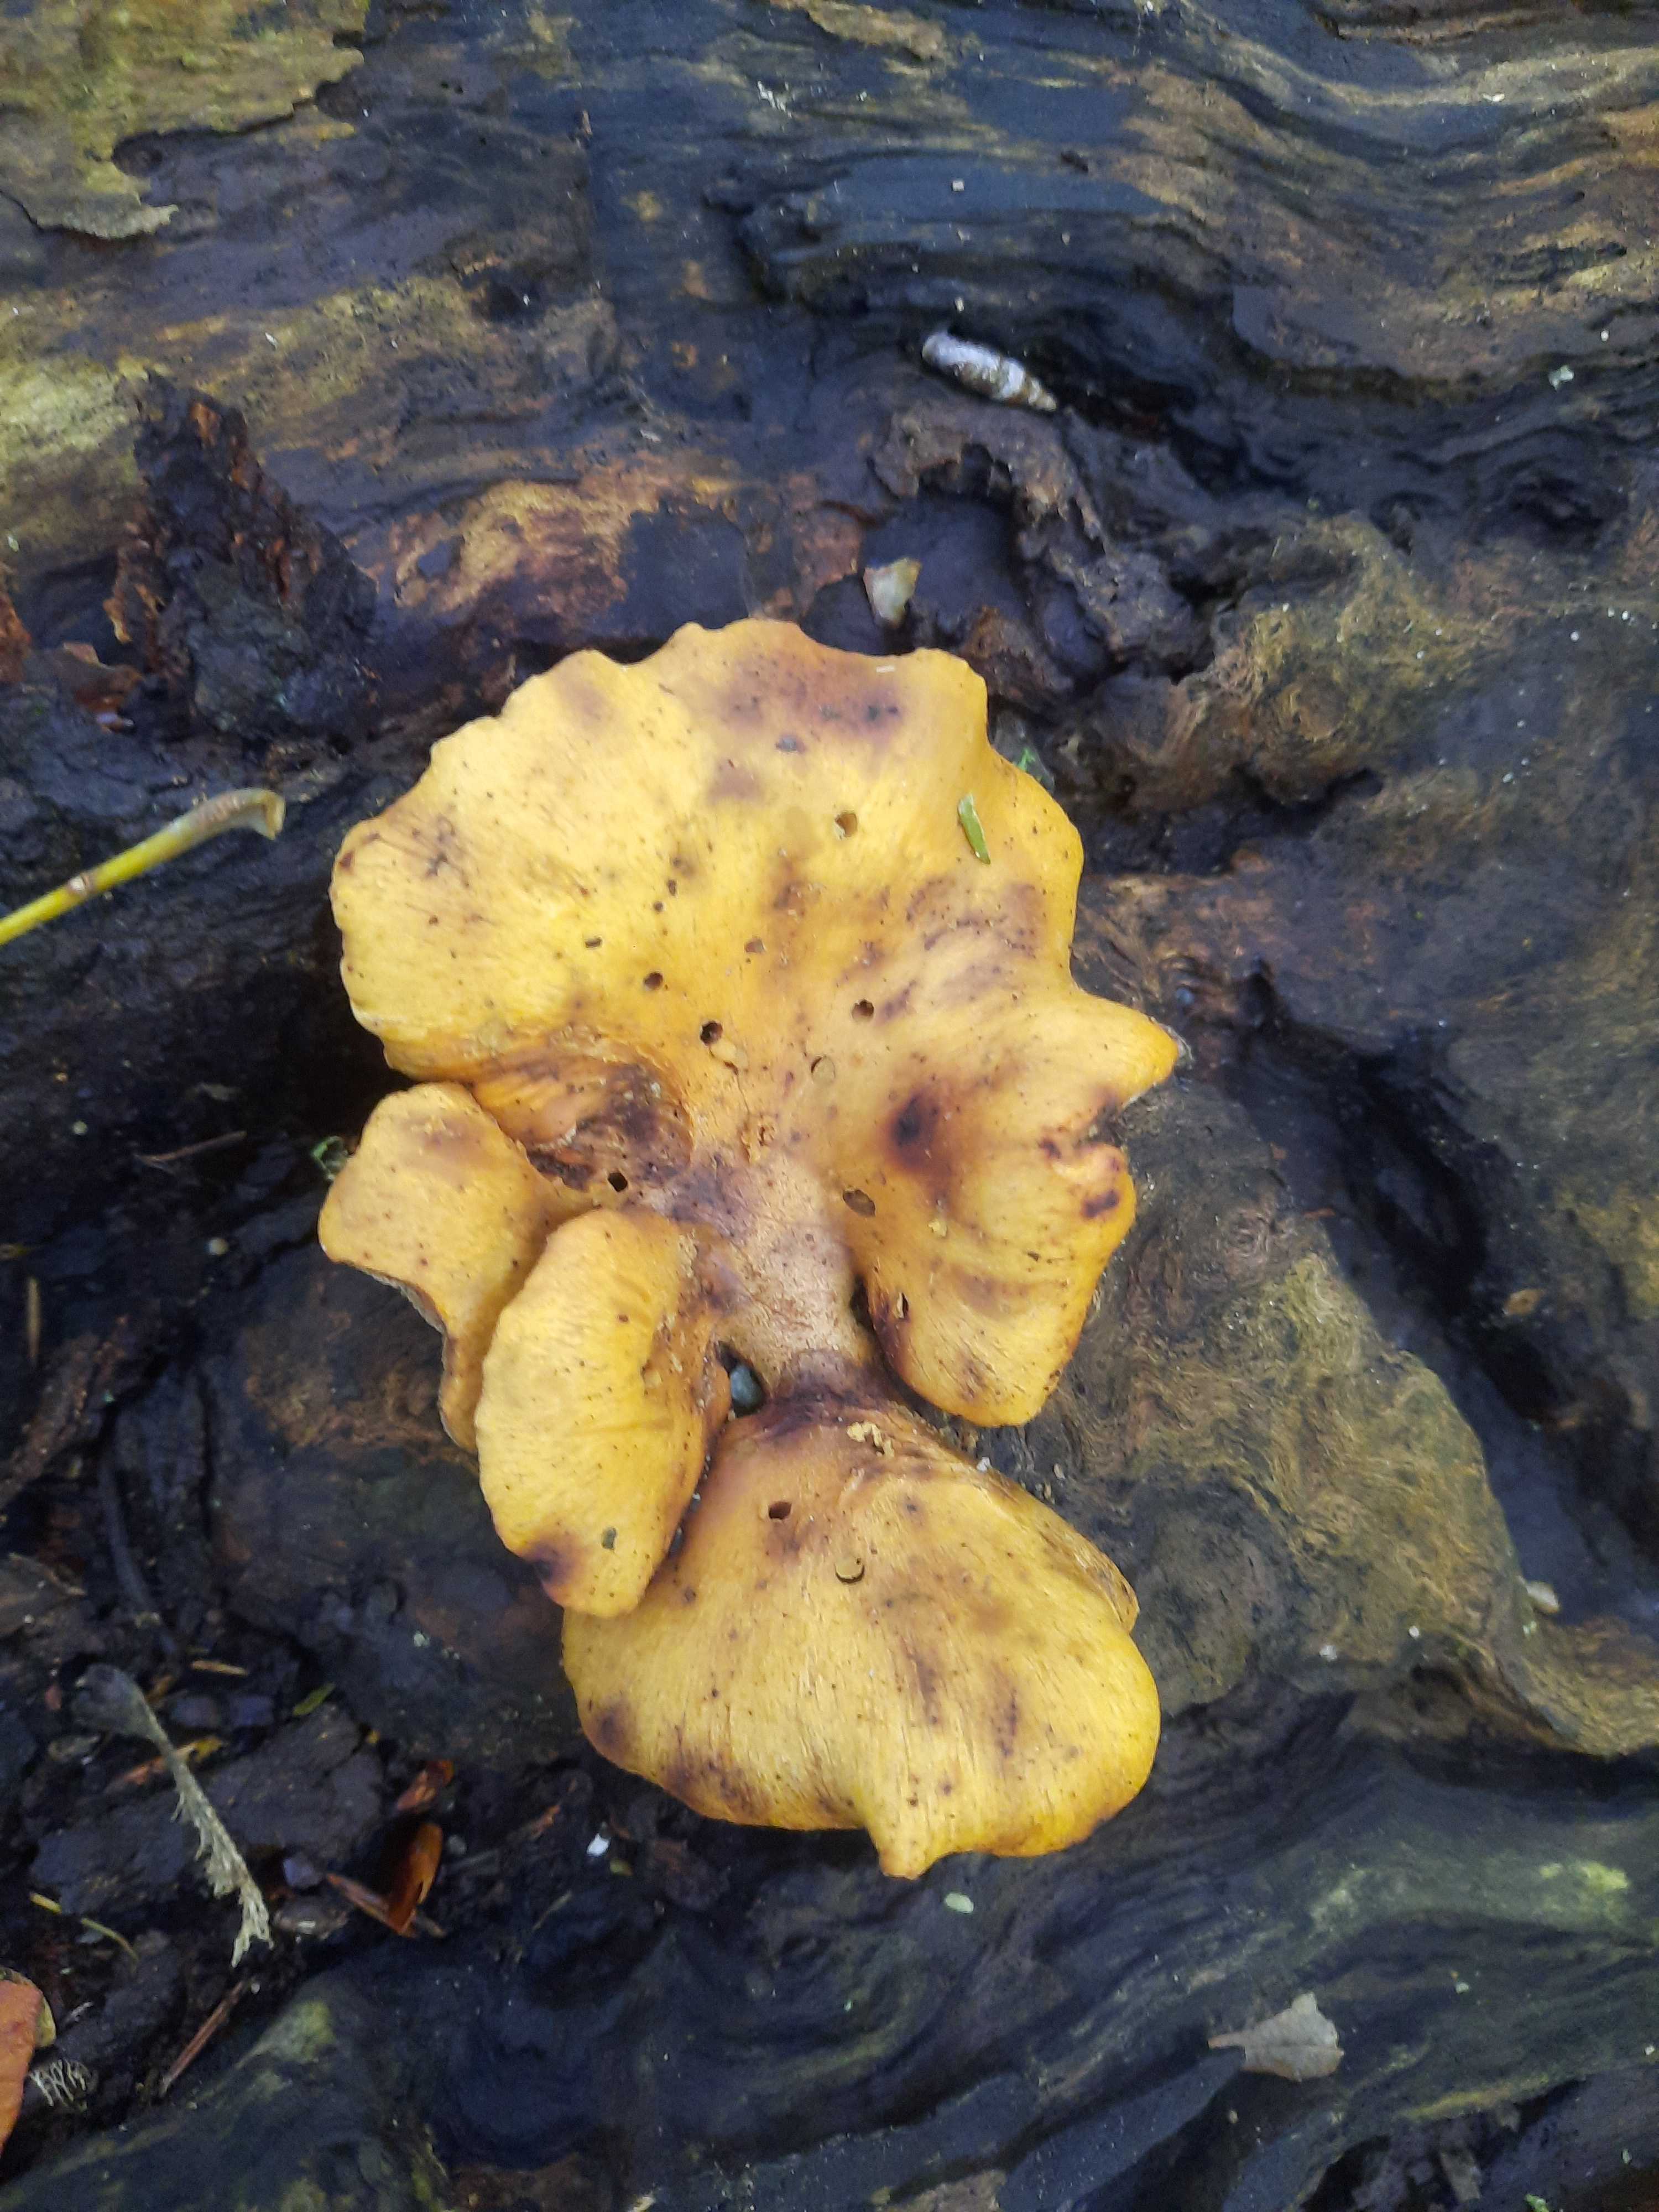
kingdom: Fungi
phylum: Basidiomycota
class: Agaricomycetes
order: Polyporales
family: Polyporaceae
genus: Cerioporus
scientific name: Cerioporus varius
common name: foranderlig stilkporesvamp
